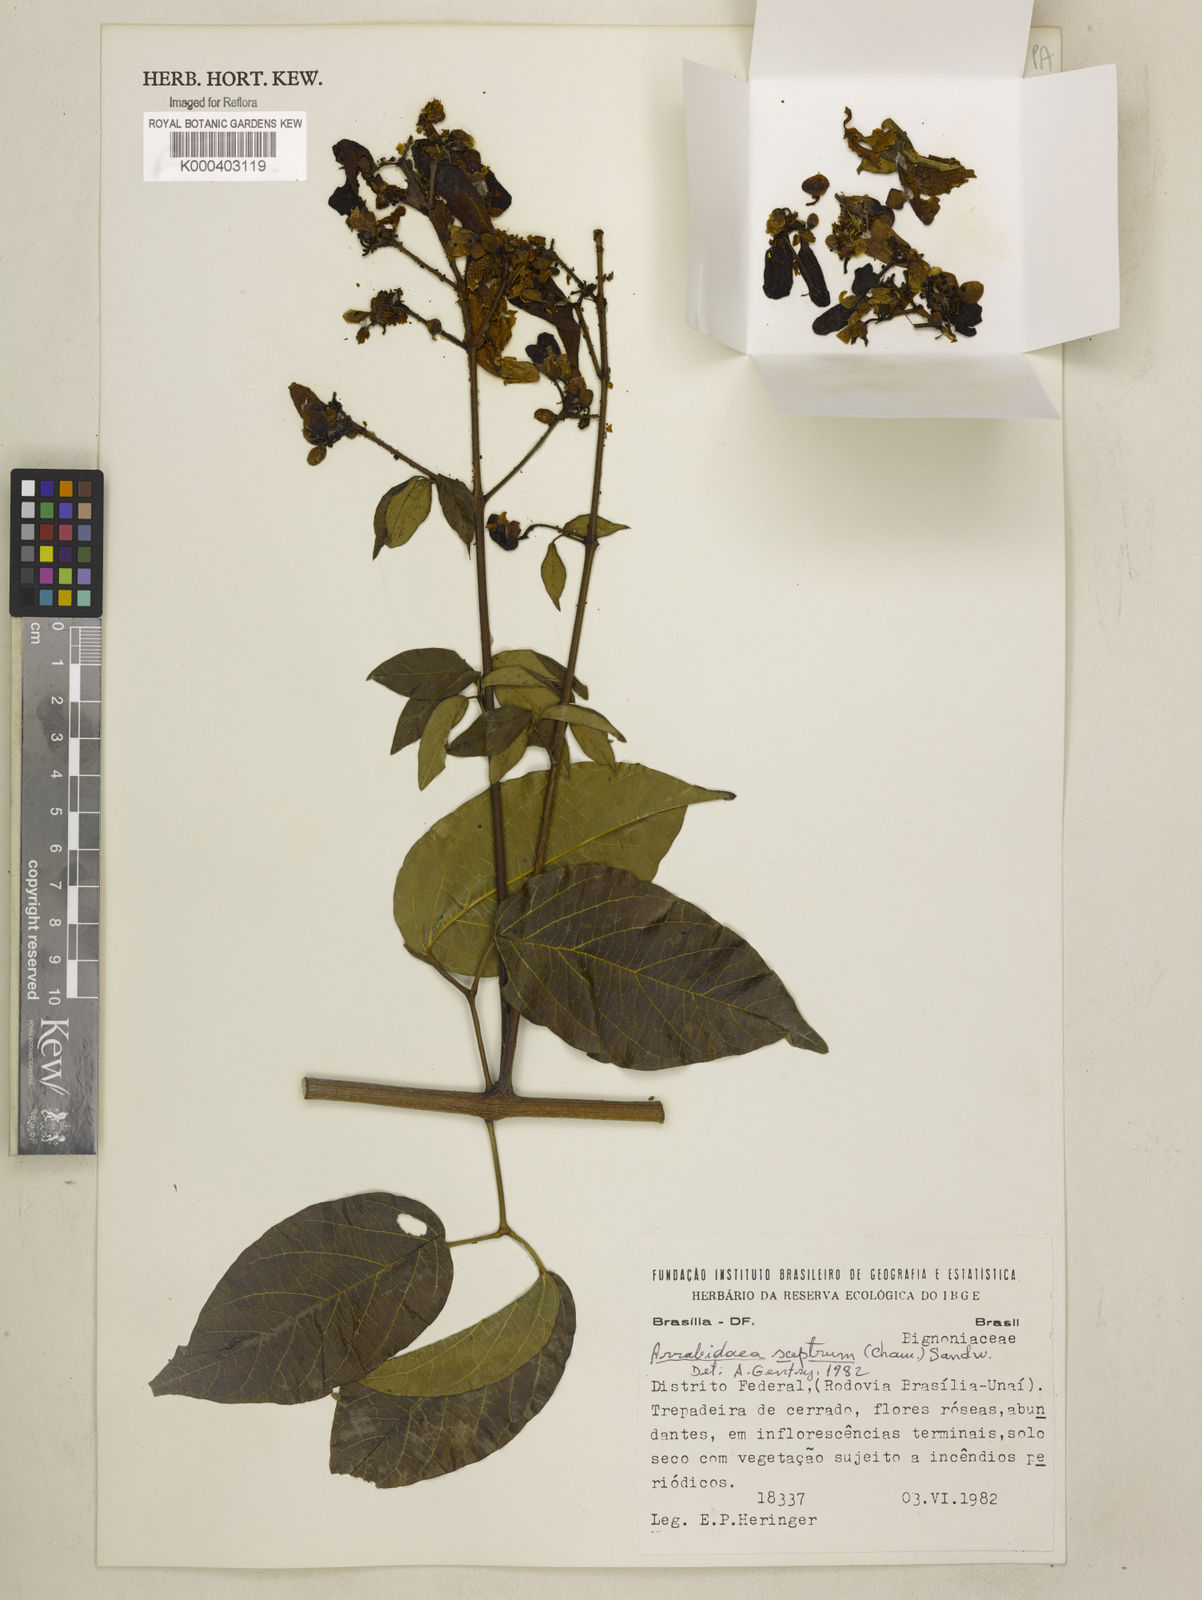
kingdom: Plantae
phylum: Tracheophyta
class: Magnoliopsida
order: Lamiales
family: Bignoniaceae
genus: Cuspidaria
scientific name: Cuspidaria sceptrum
